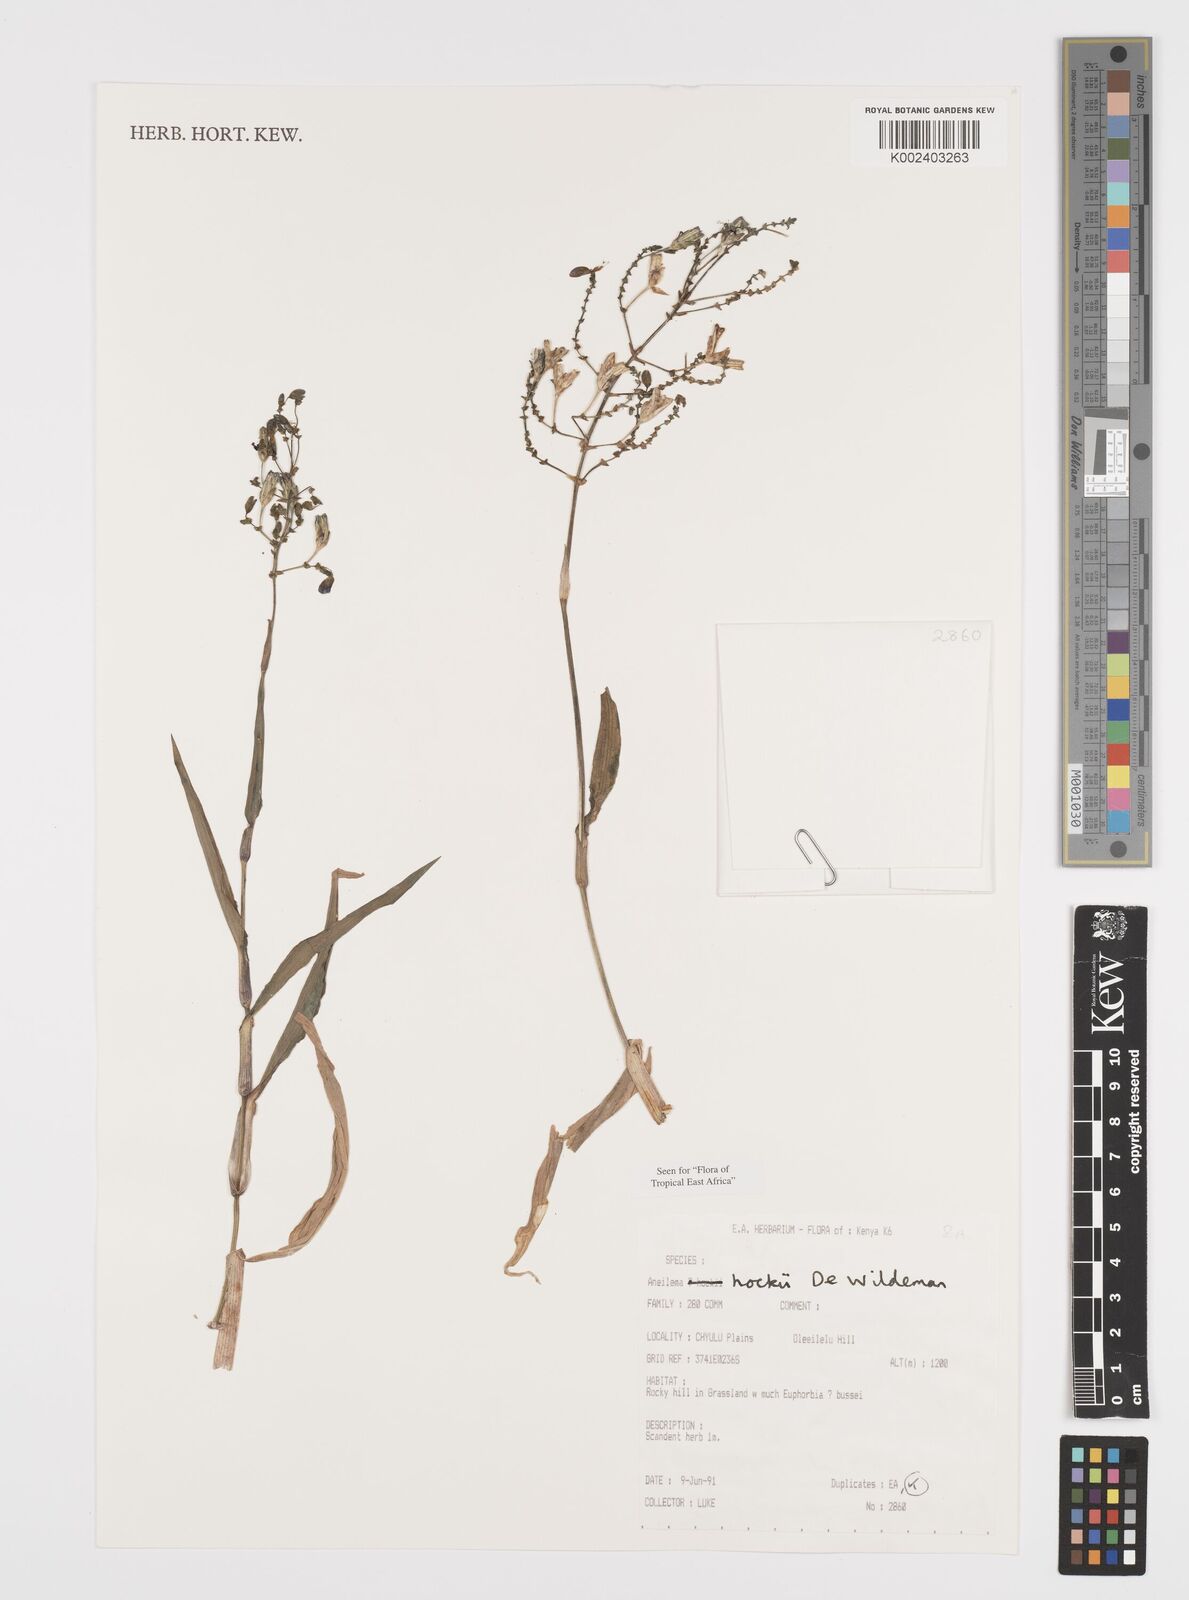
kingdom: Plantae
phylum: Tracheophyta
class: Liliopsida
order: Commelinales
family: Commelinaceae
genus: Aneilema
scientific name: Aneilema hockii
